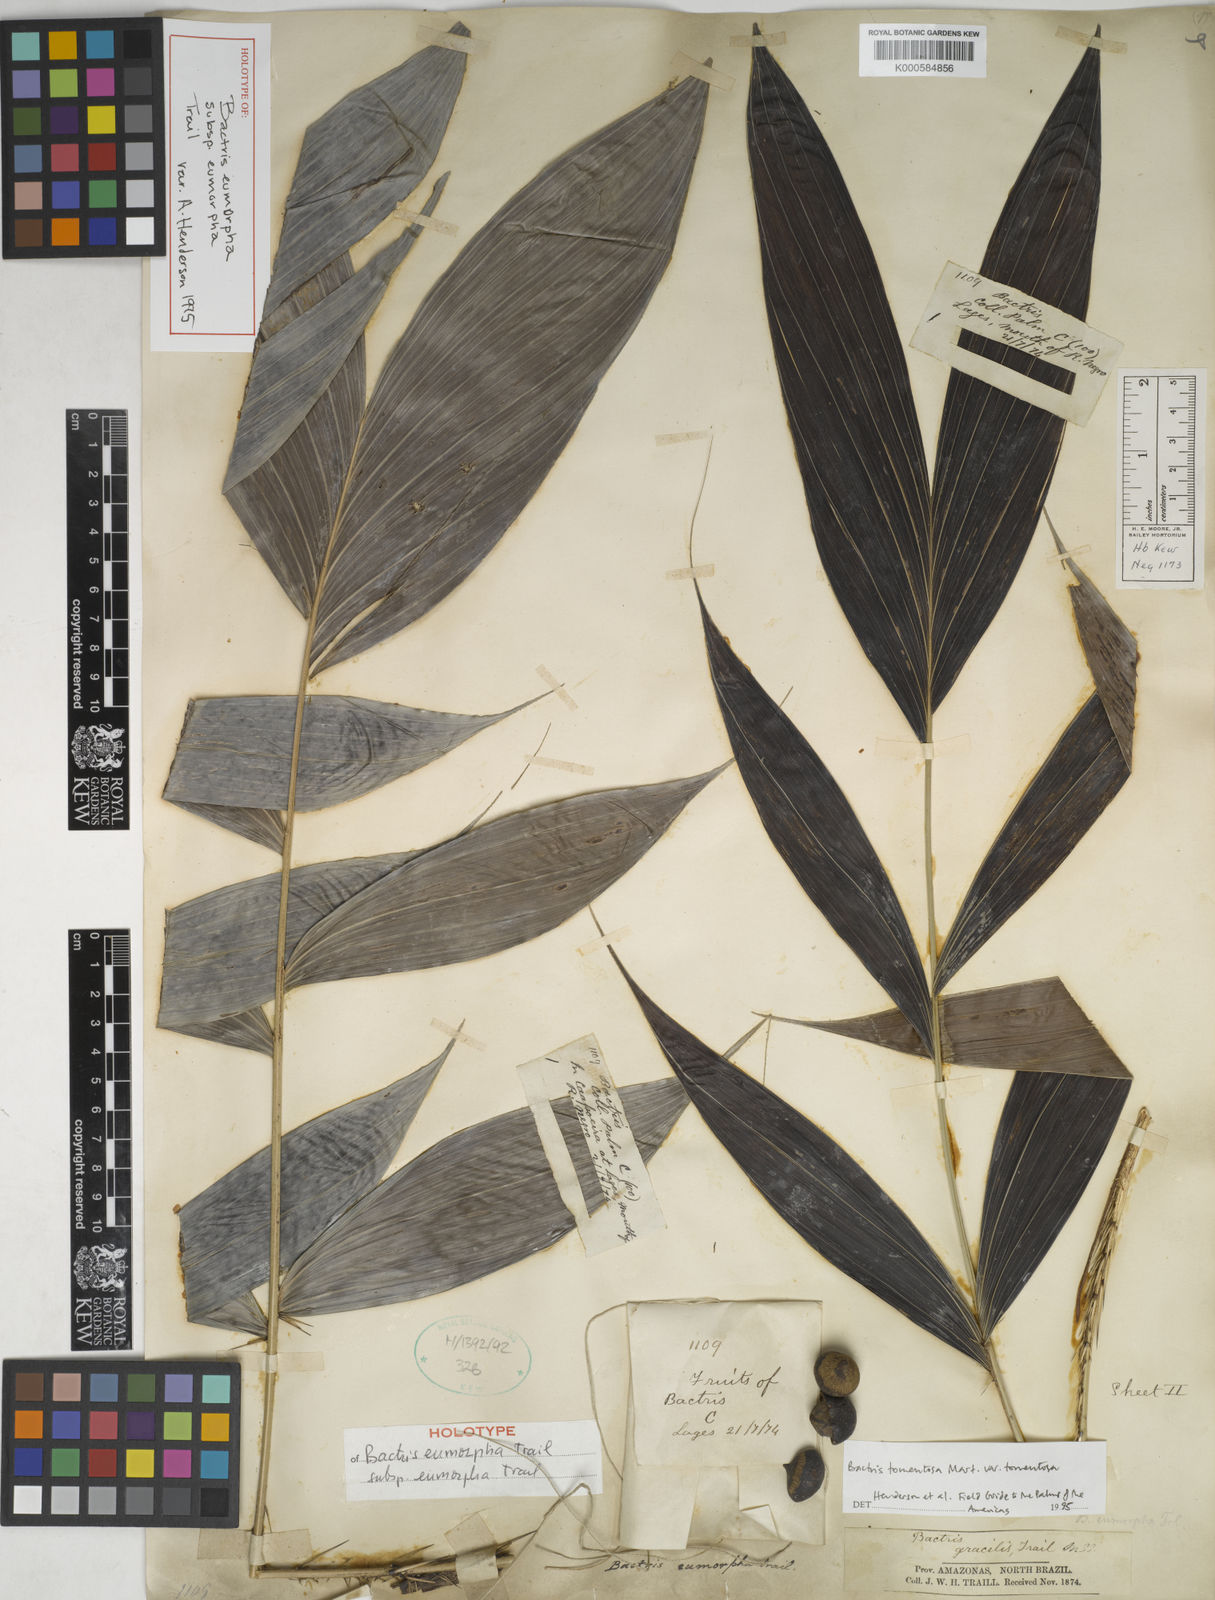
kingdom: Plantae
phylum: Tracheophyta
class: Liliopsida
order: Arecales
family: Arecaceae
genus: Bactris
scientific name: Bactris tomentosa
